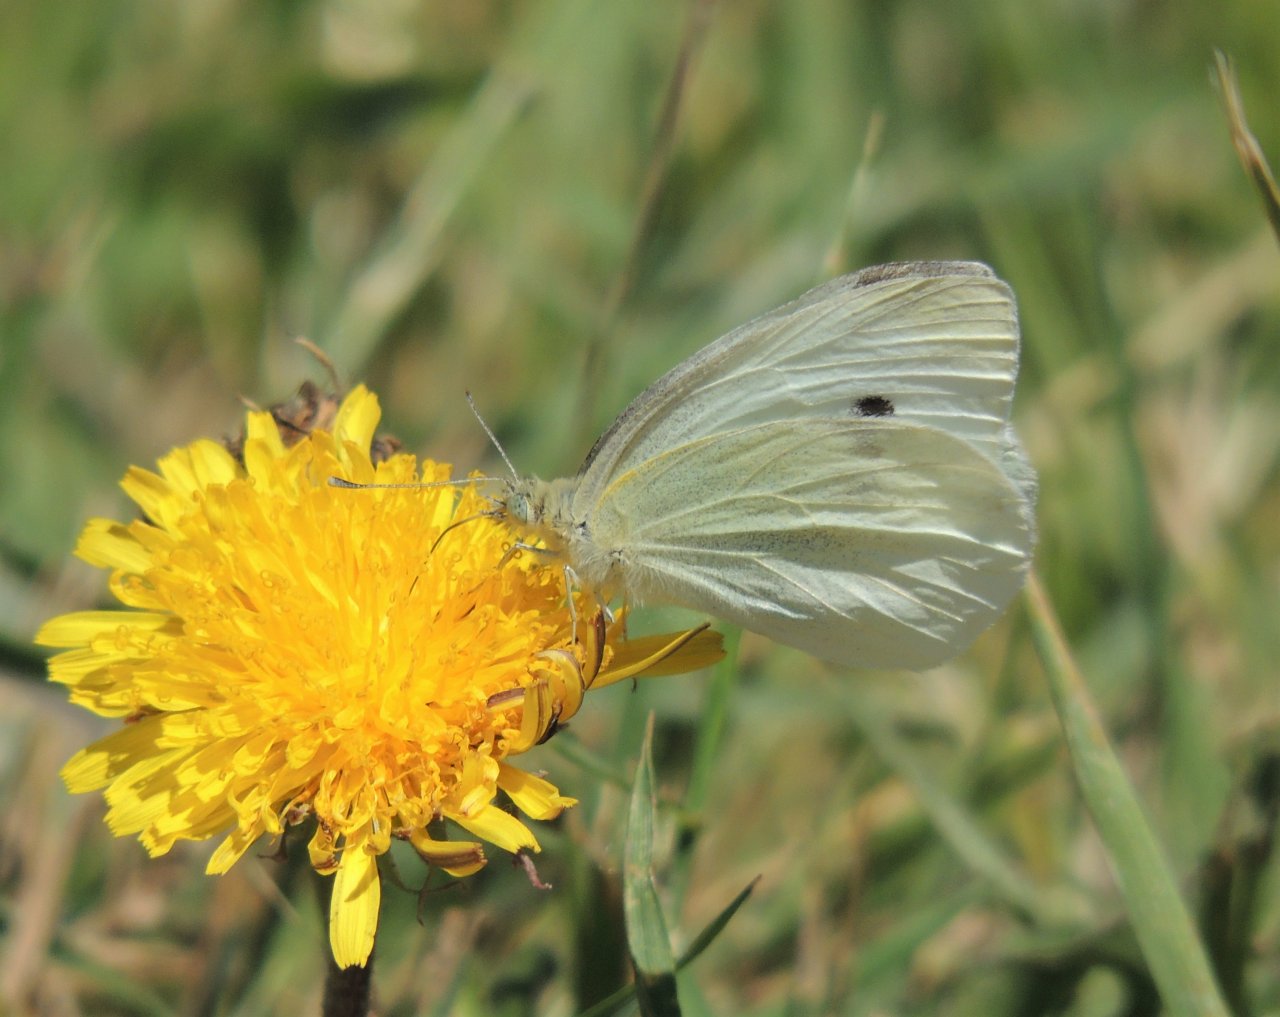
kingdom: Animalia
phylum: Arthropoda
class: Insecta
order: Lepidoptera
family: Pieridae
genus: Pieris
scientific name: Pieris rapae
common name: Cabbage White
